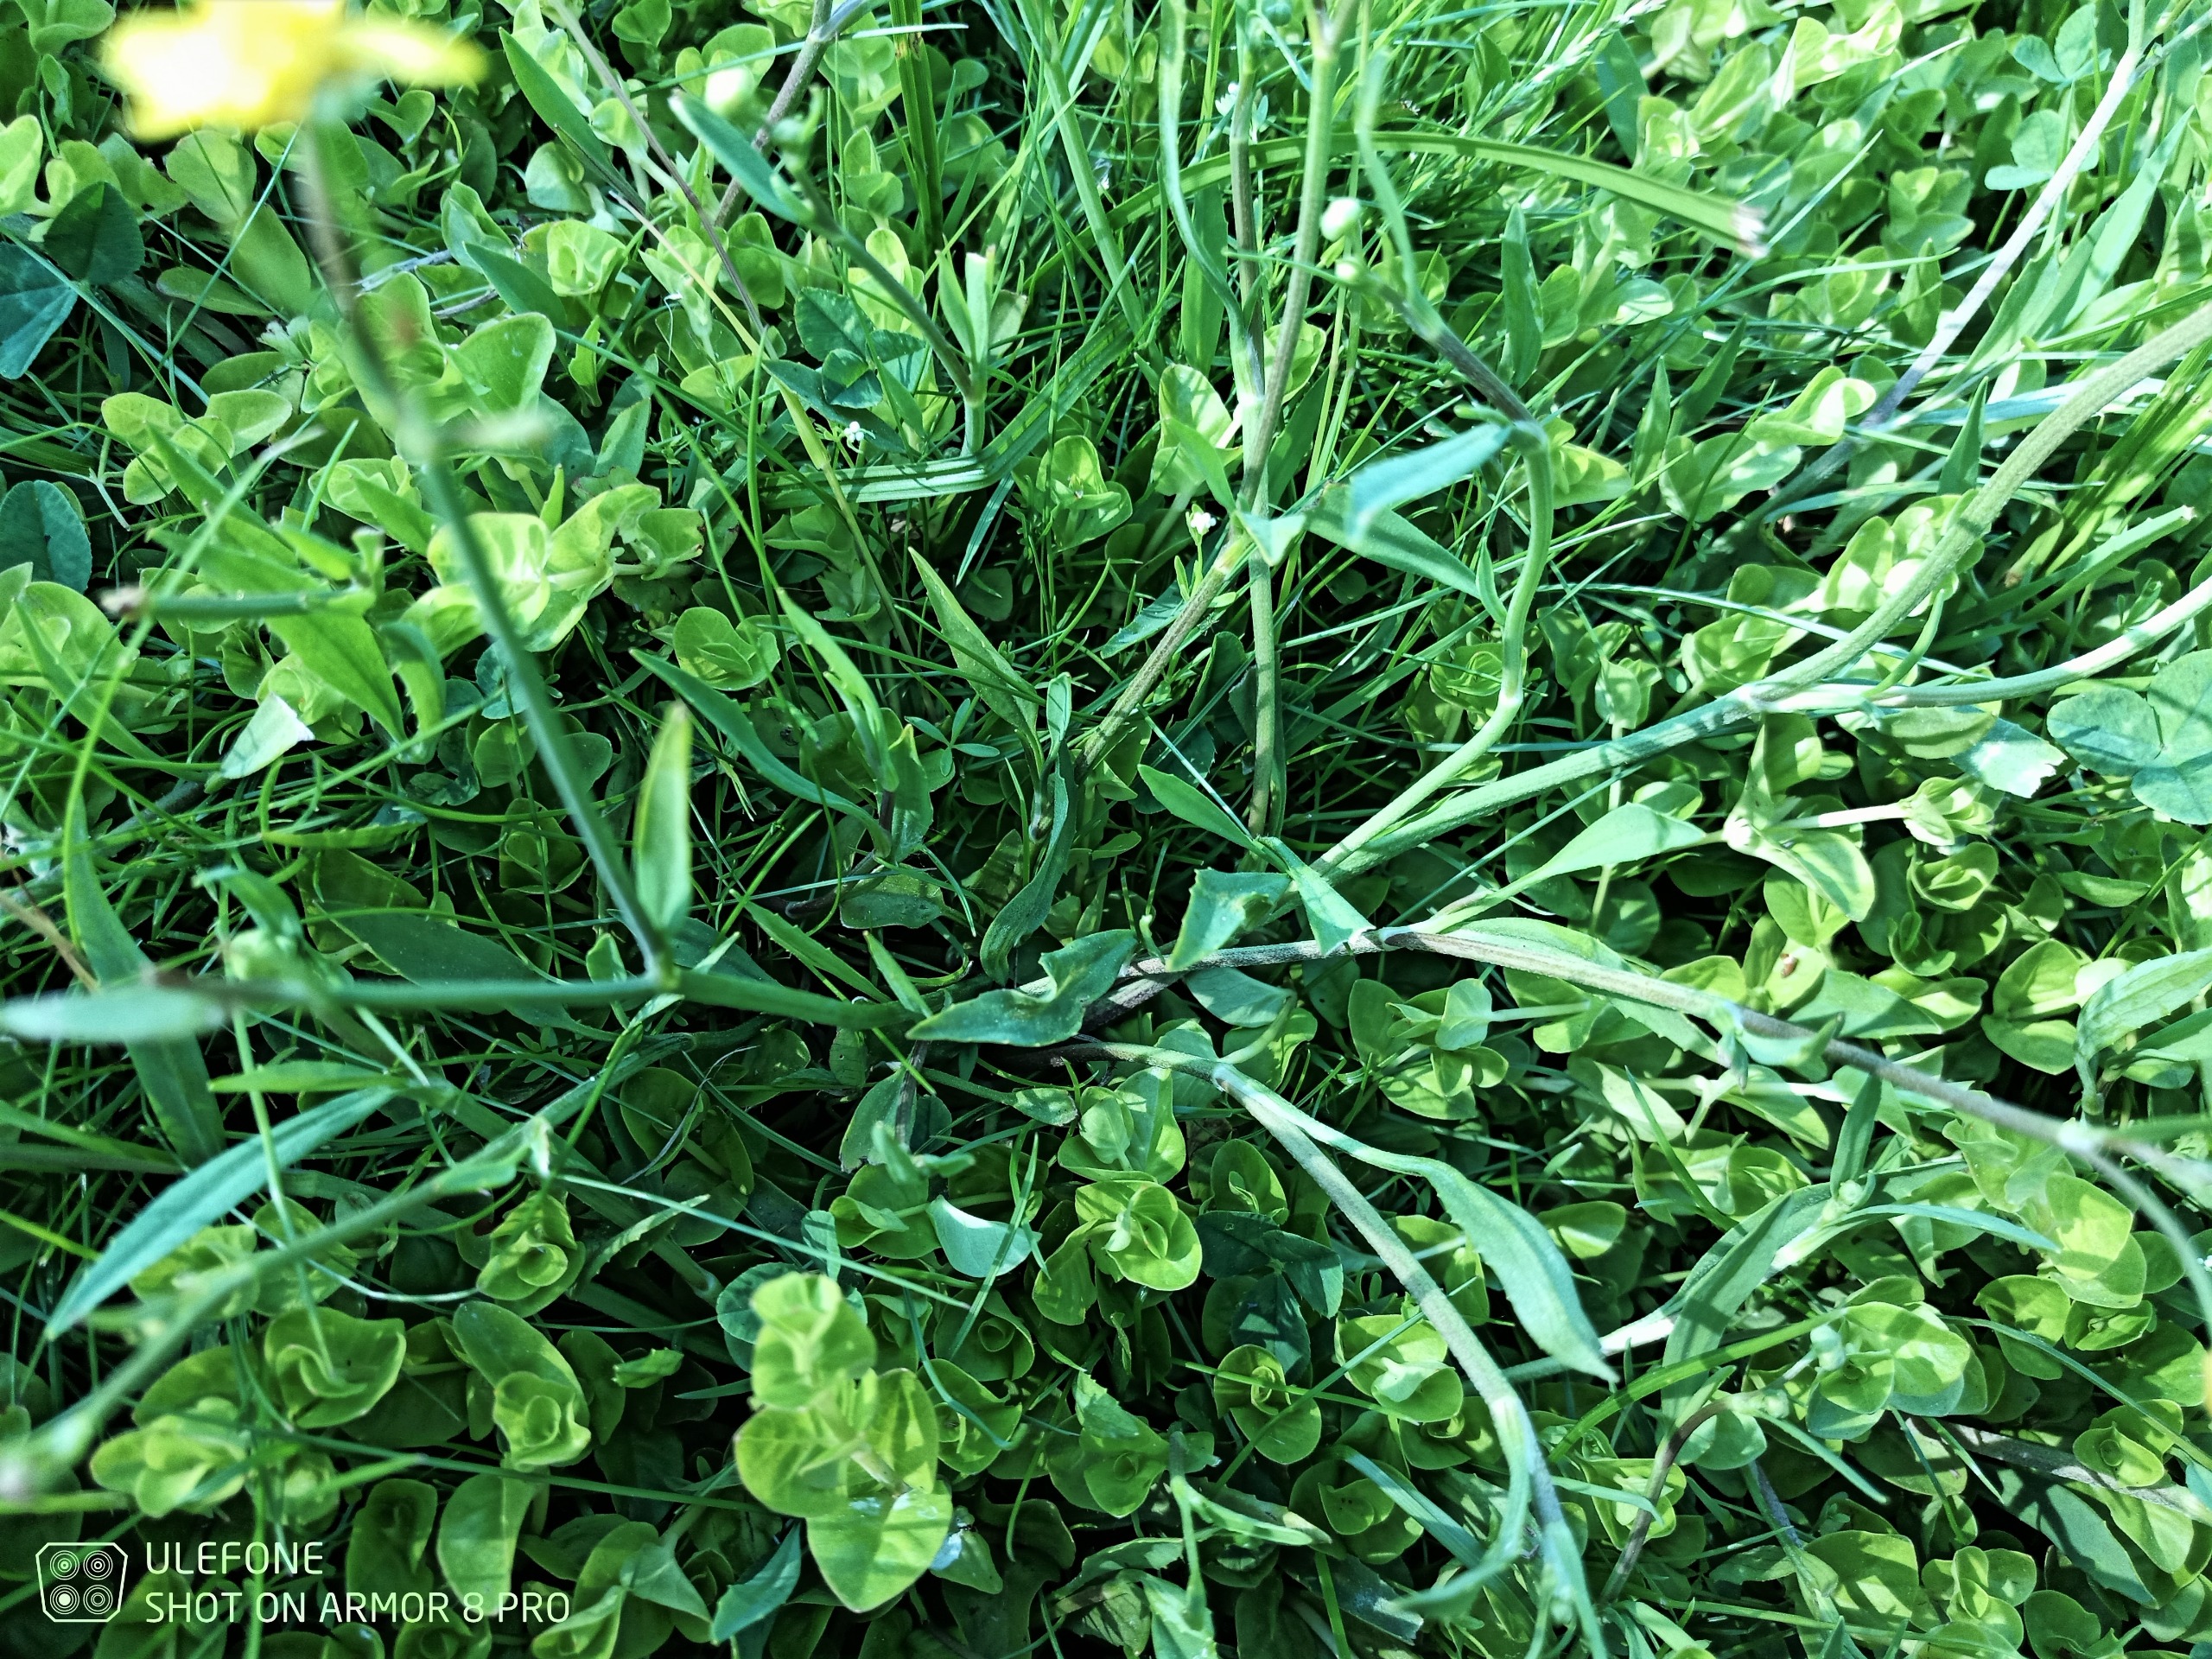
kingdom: Plantae
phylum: Tracheophyta
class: Magnoliopsida
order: Ranunculales
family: Ranunculaceae
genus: Ranunculus
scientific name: Ranunculus flammula
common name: Kær-ranunkel
